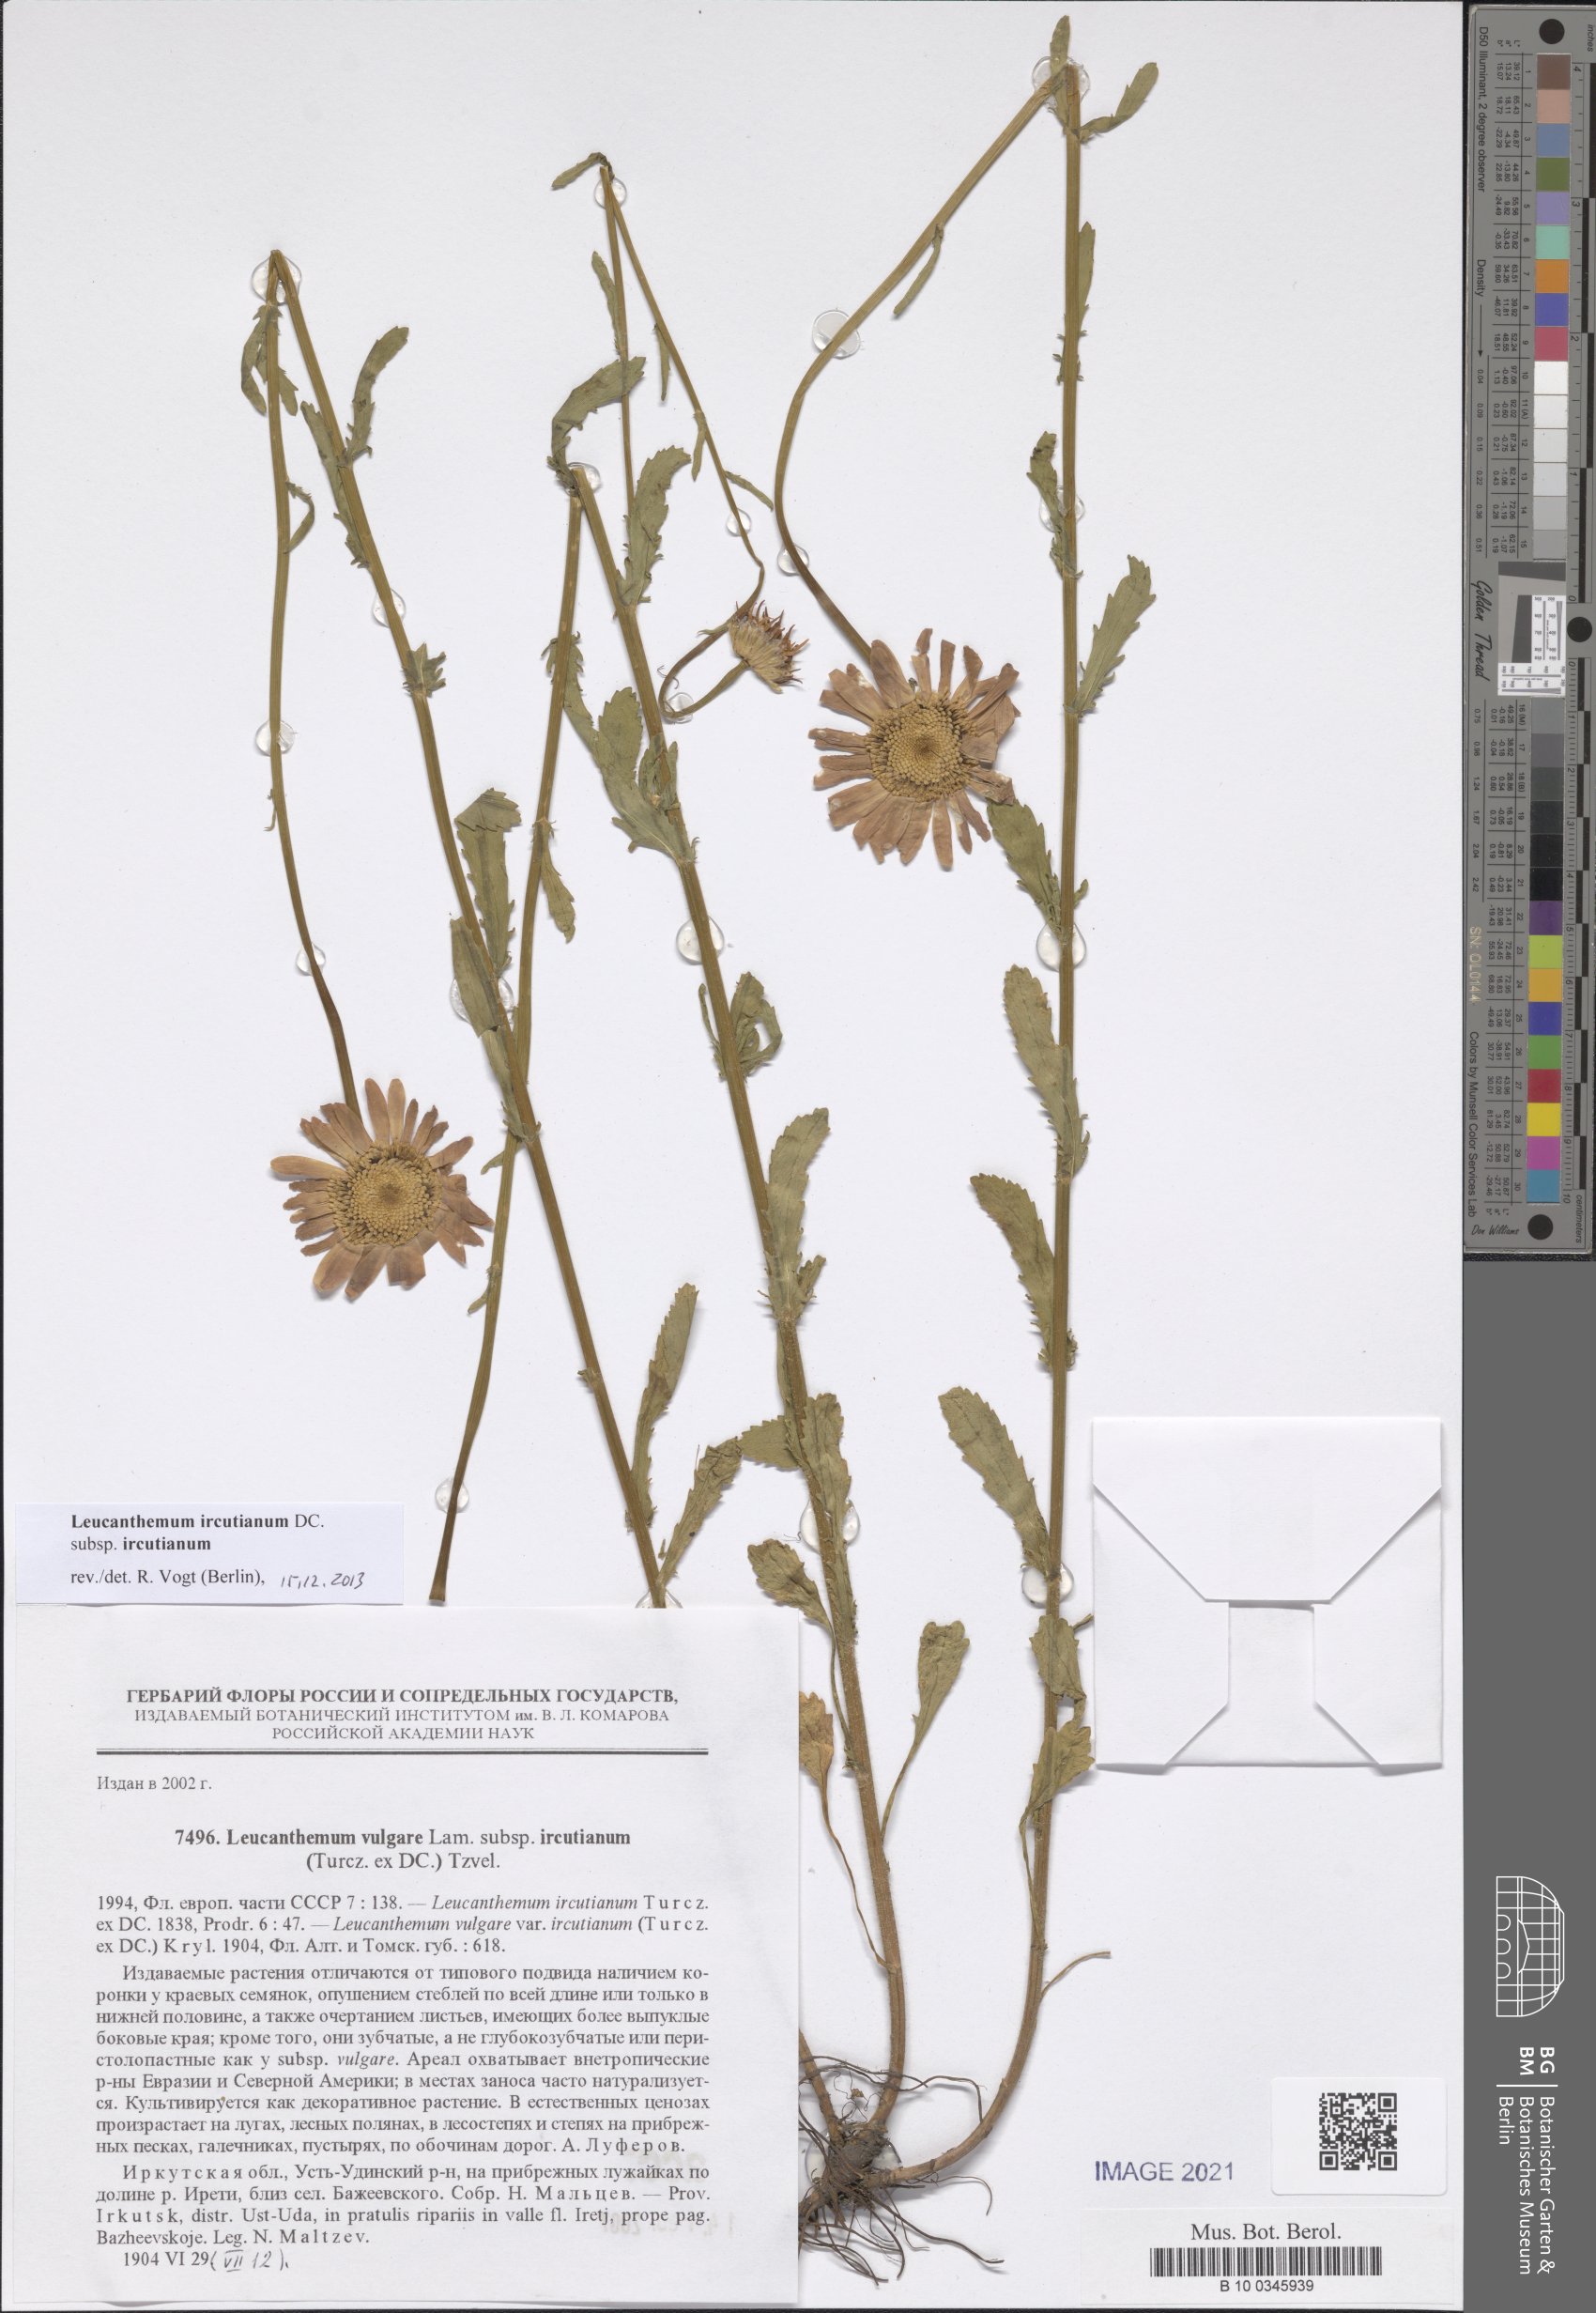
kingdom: Plantae
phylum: Tracheophyta
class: Magnoliopsida
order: Asterales
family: Asteraceae
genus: Leucanthemum
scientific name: Leucanthemum ircutianum
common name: Daisy
